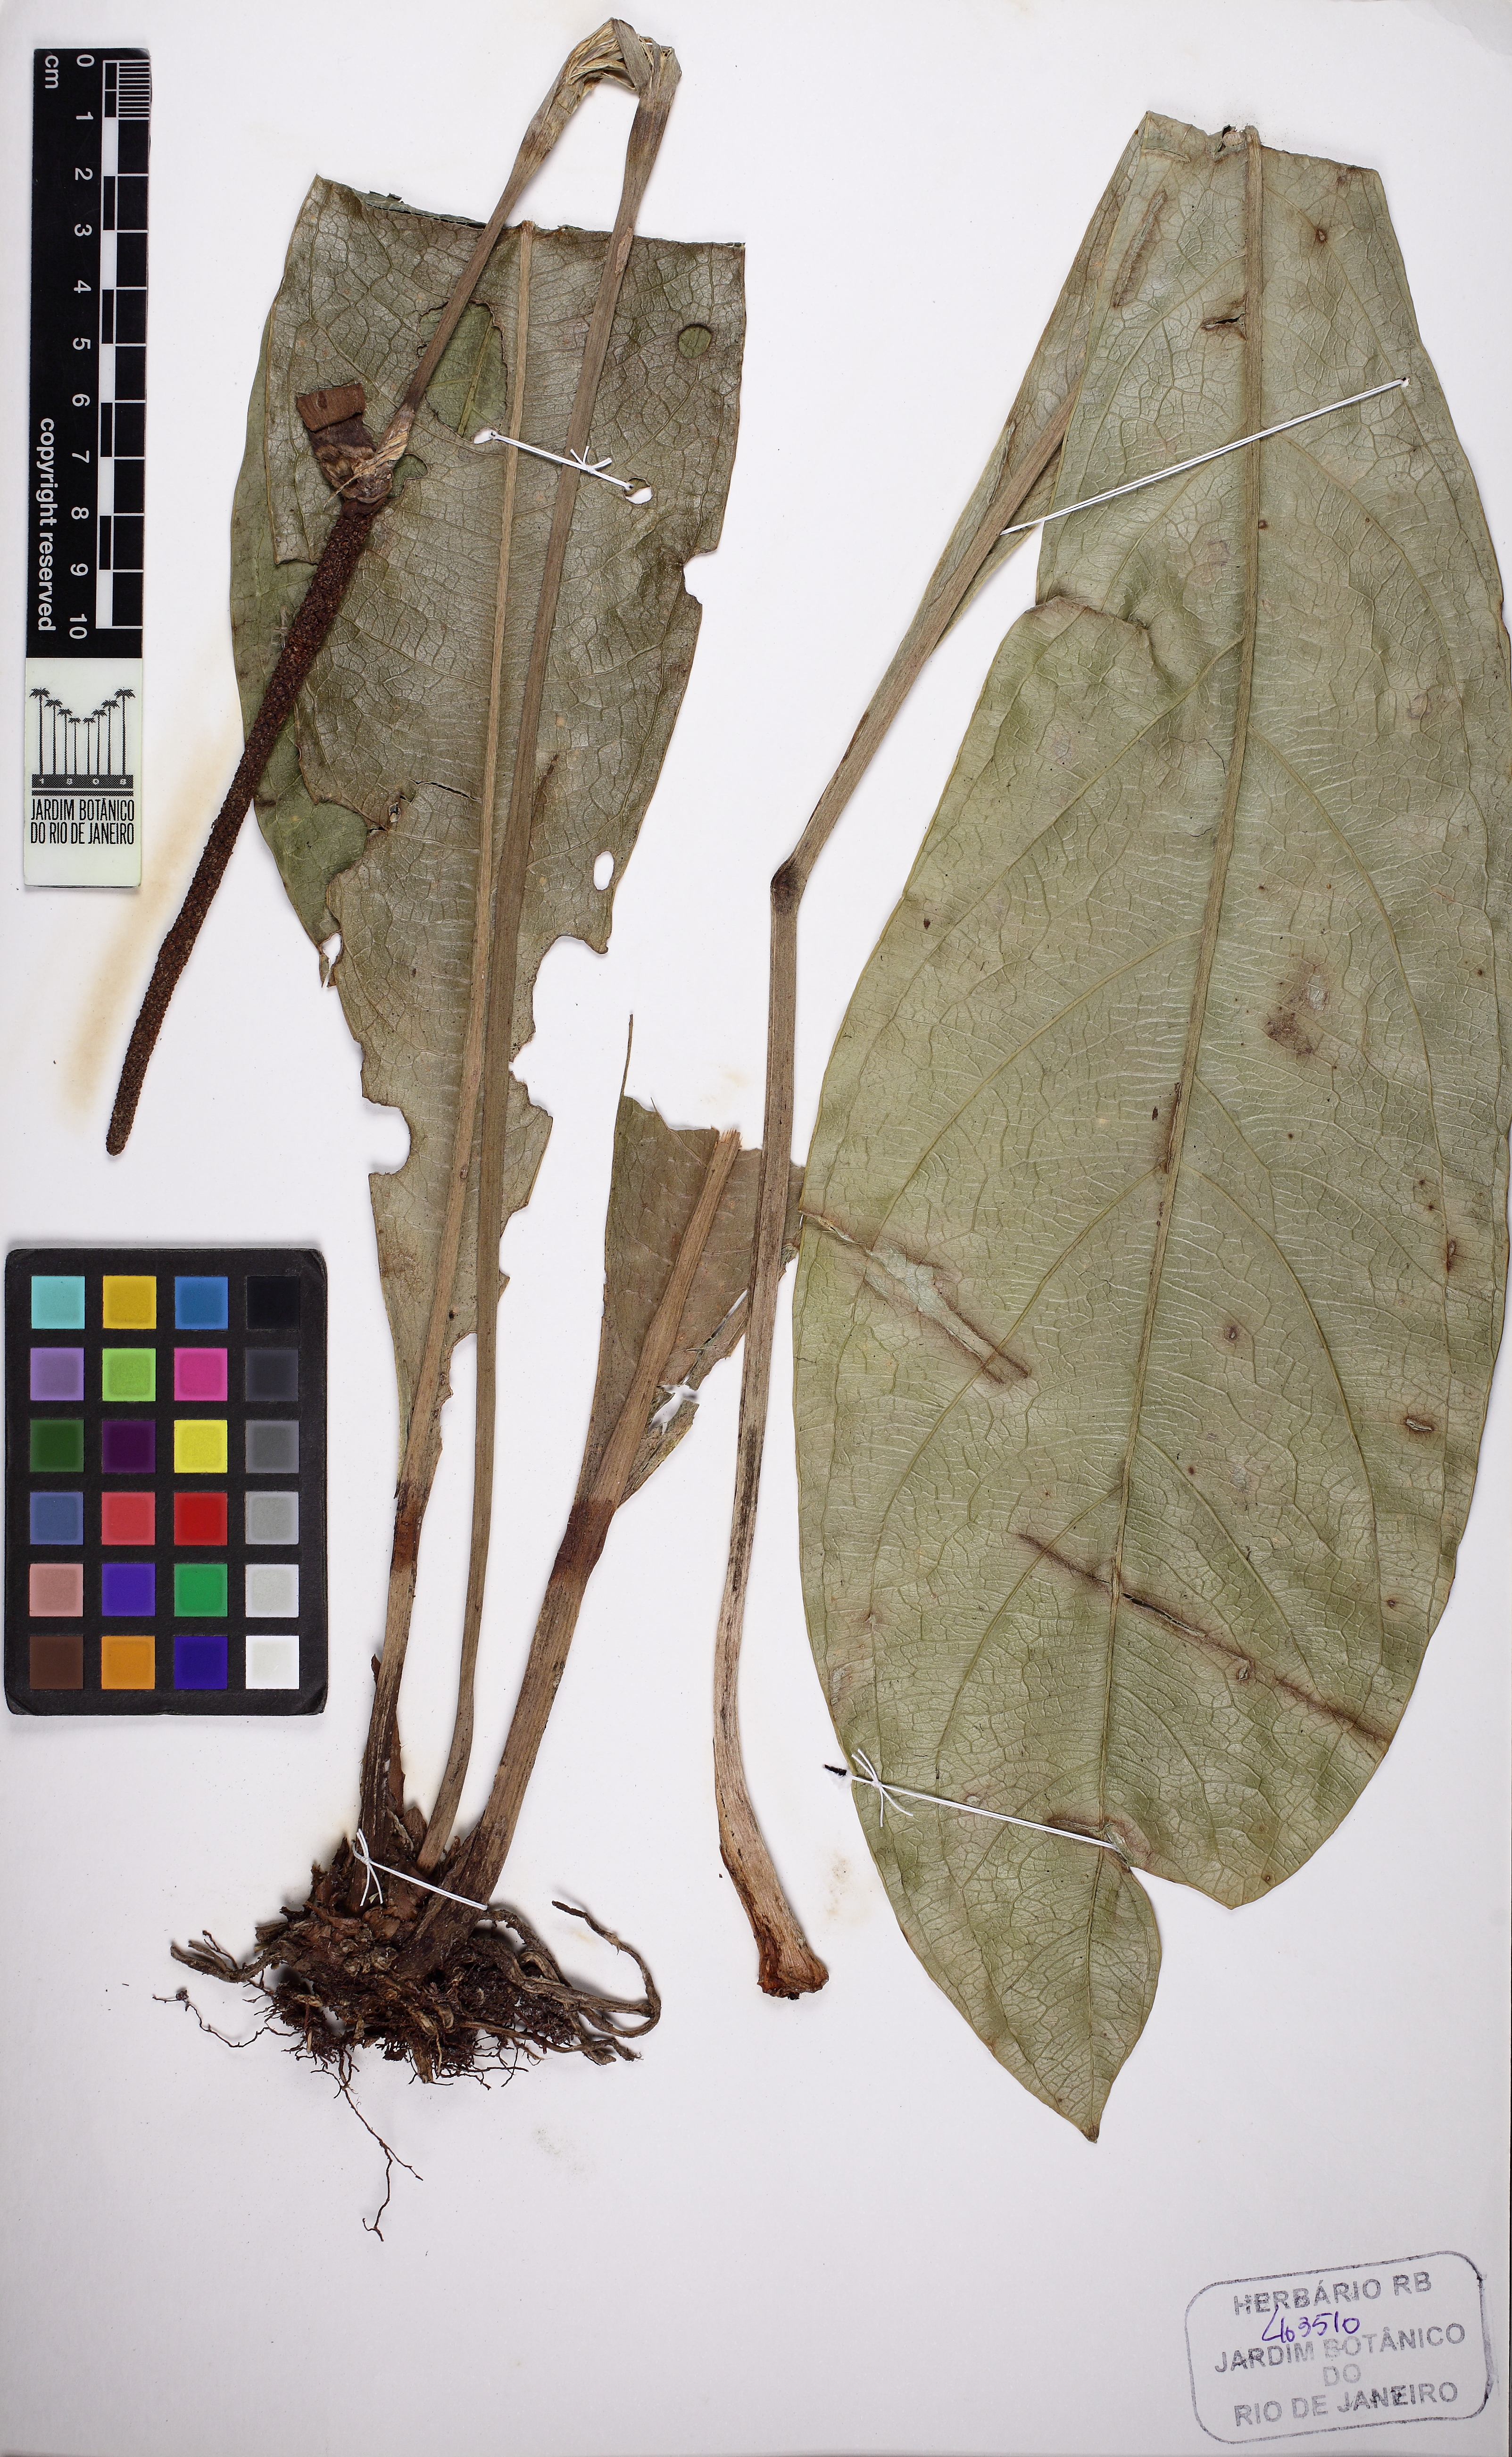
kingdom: Plantae
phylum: Tracheophyta
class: Liliopsida
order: Alismatales
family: Araceae
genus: Anthurium
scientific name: Anthurium lindmanianum
